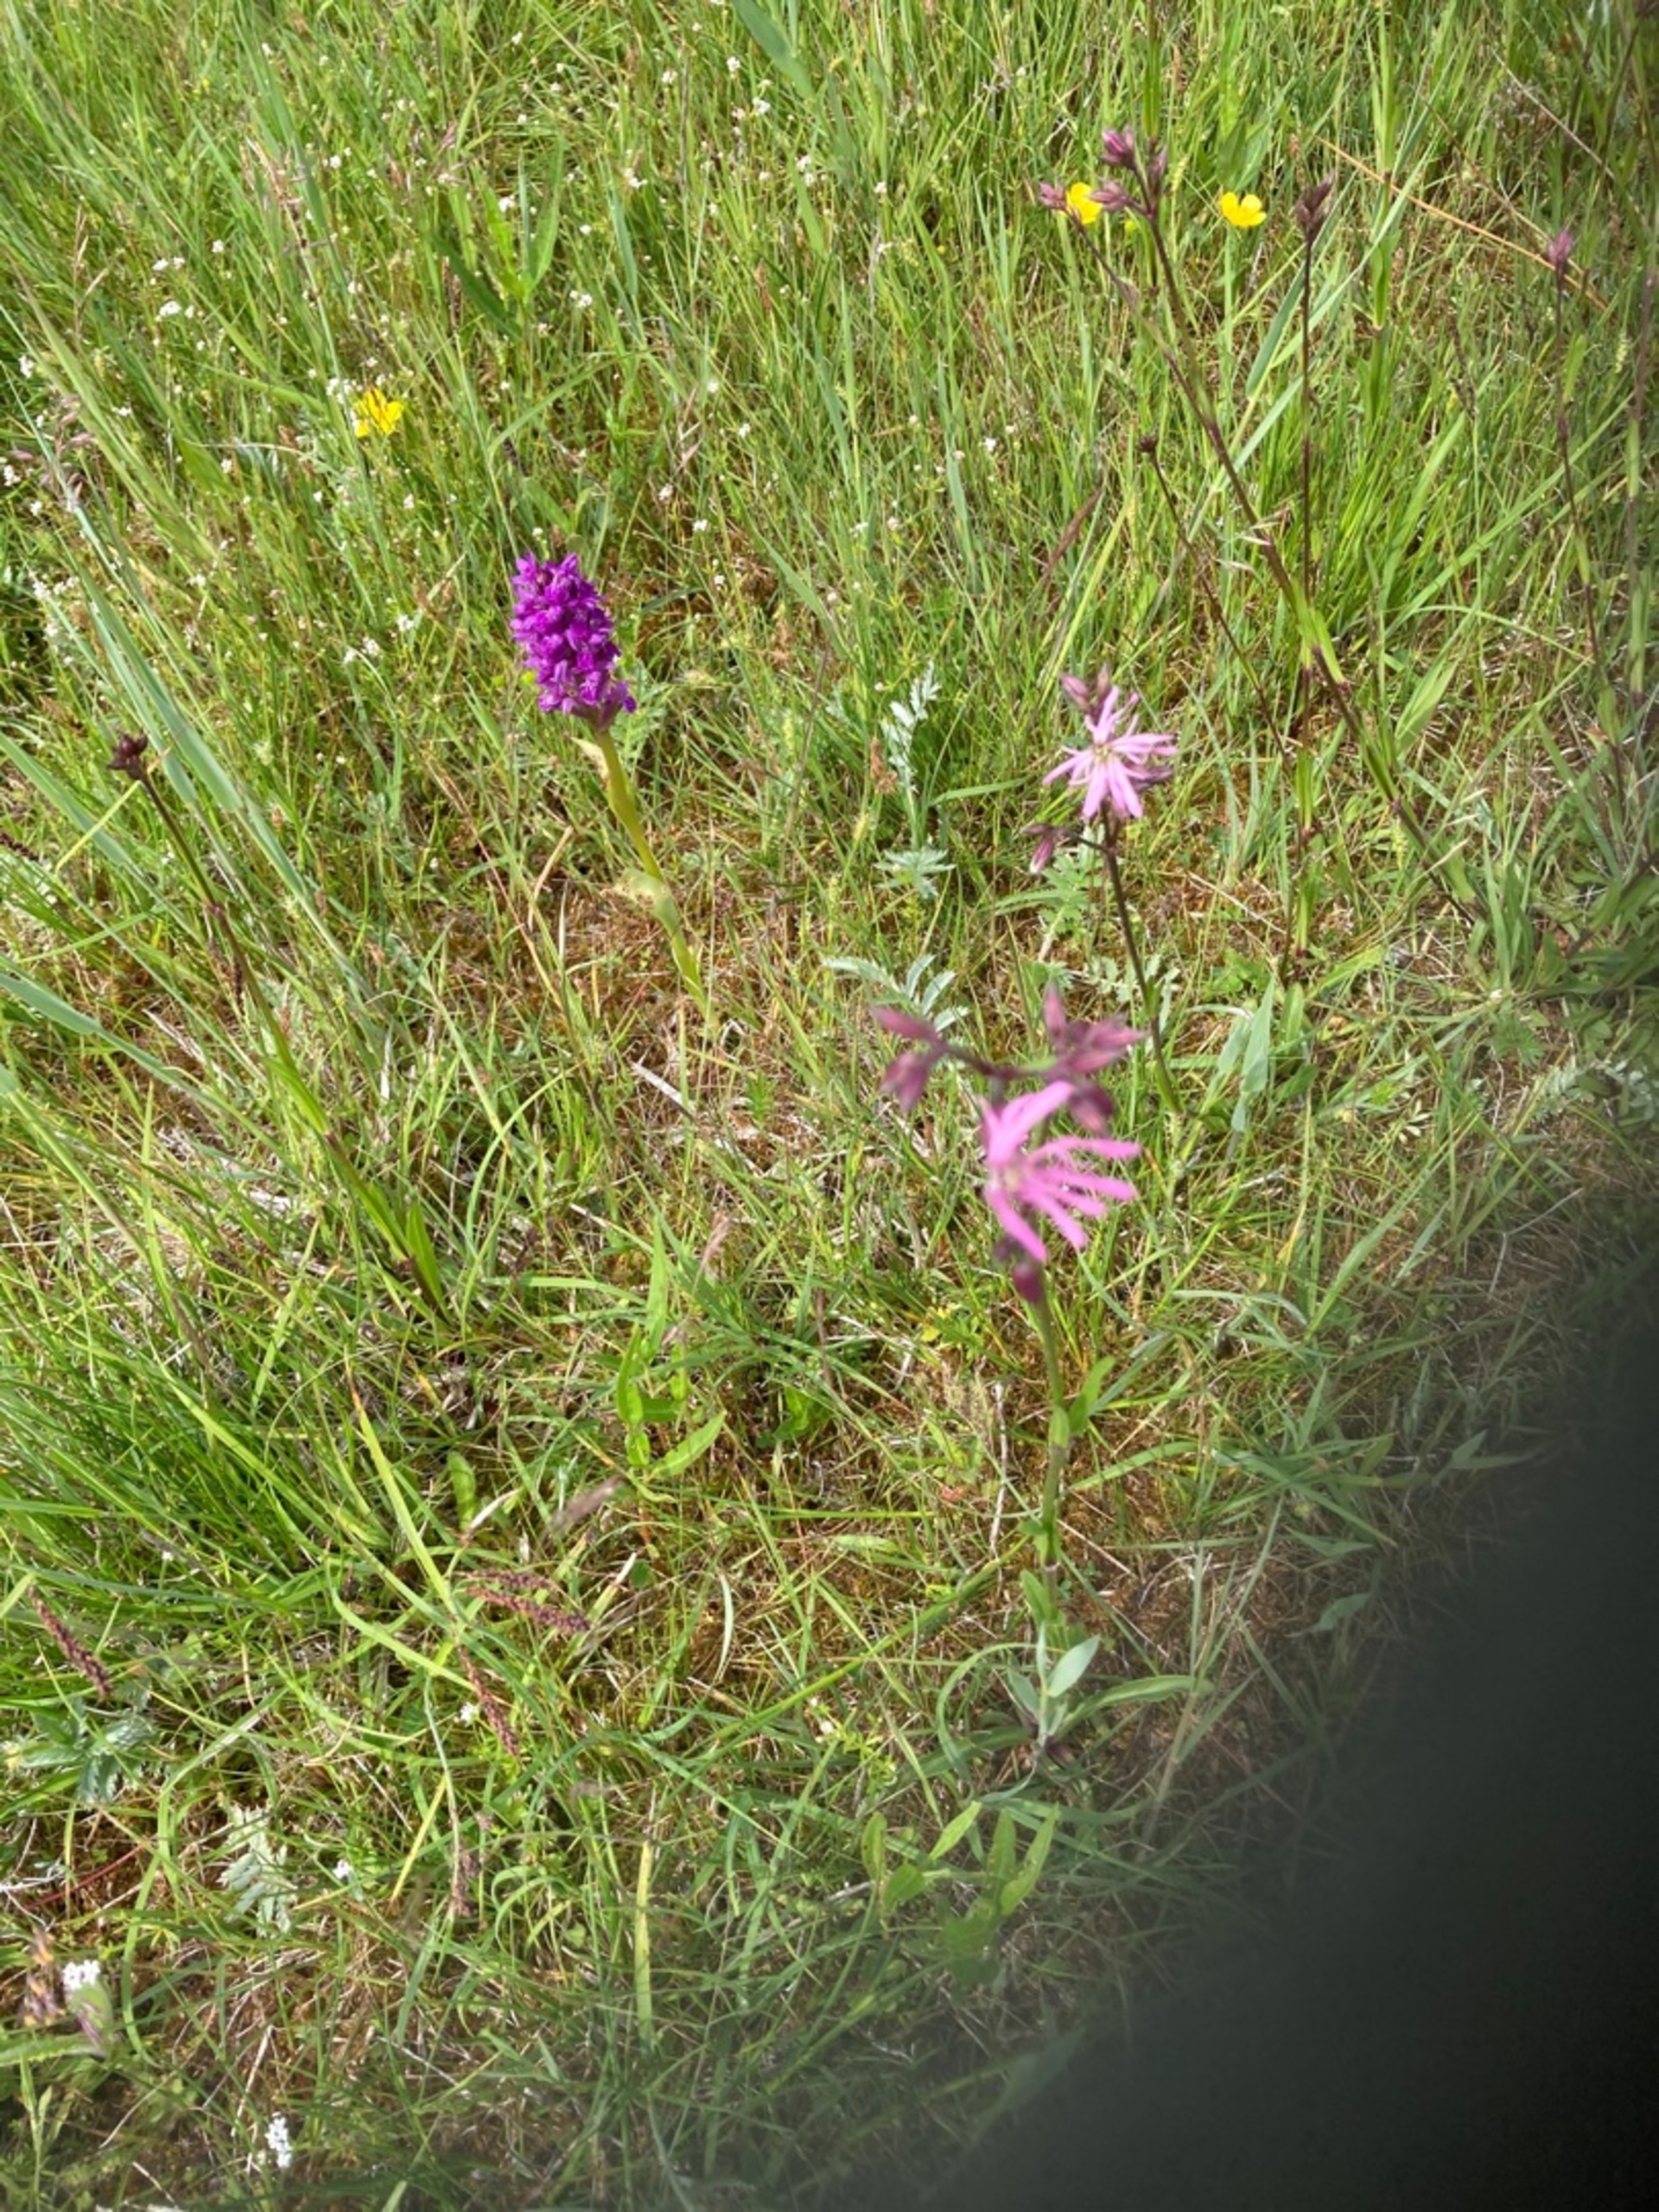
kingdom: Plantae
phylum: Tracheophyta
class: Magnoliopsida
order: Caryophyllales
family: Caryophyllaceae
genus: Silene
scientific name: Silene flos-cuculi
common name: Trævlekrone
